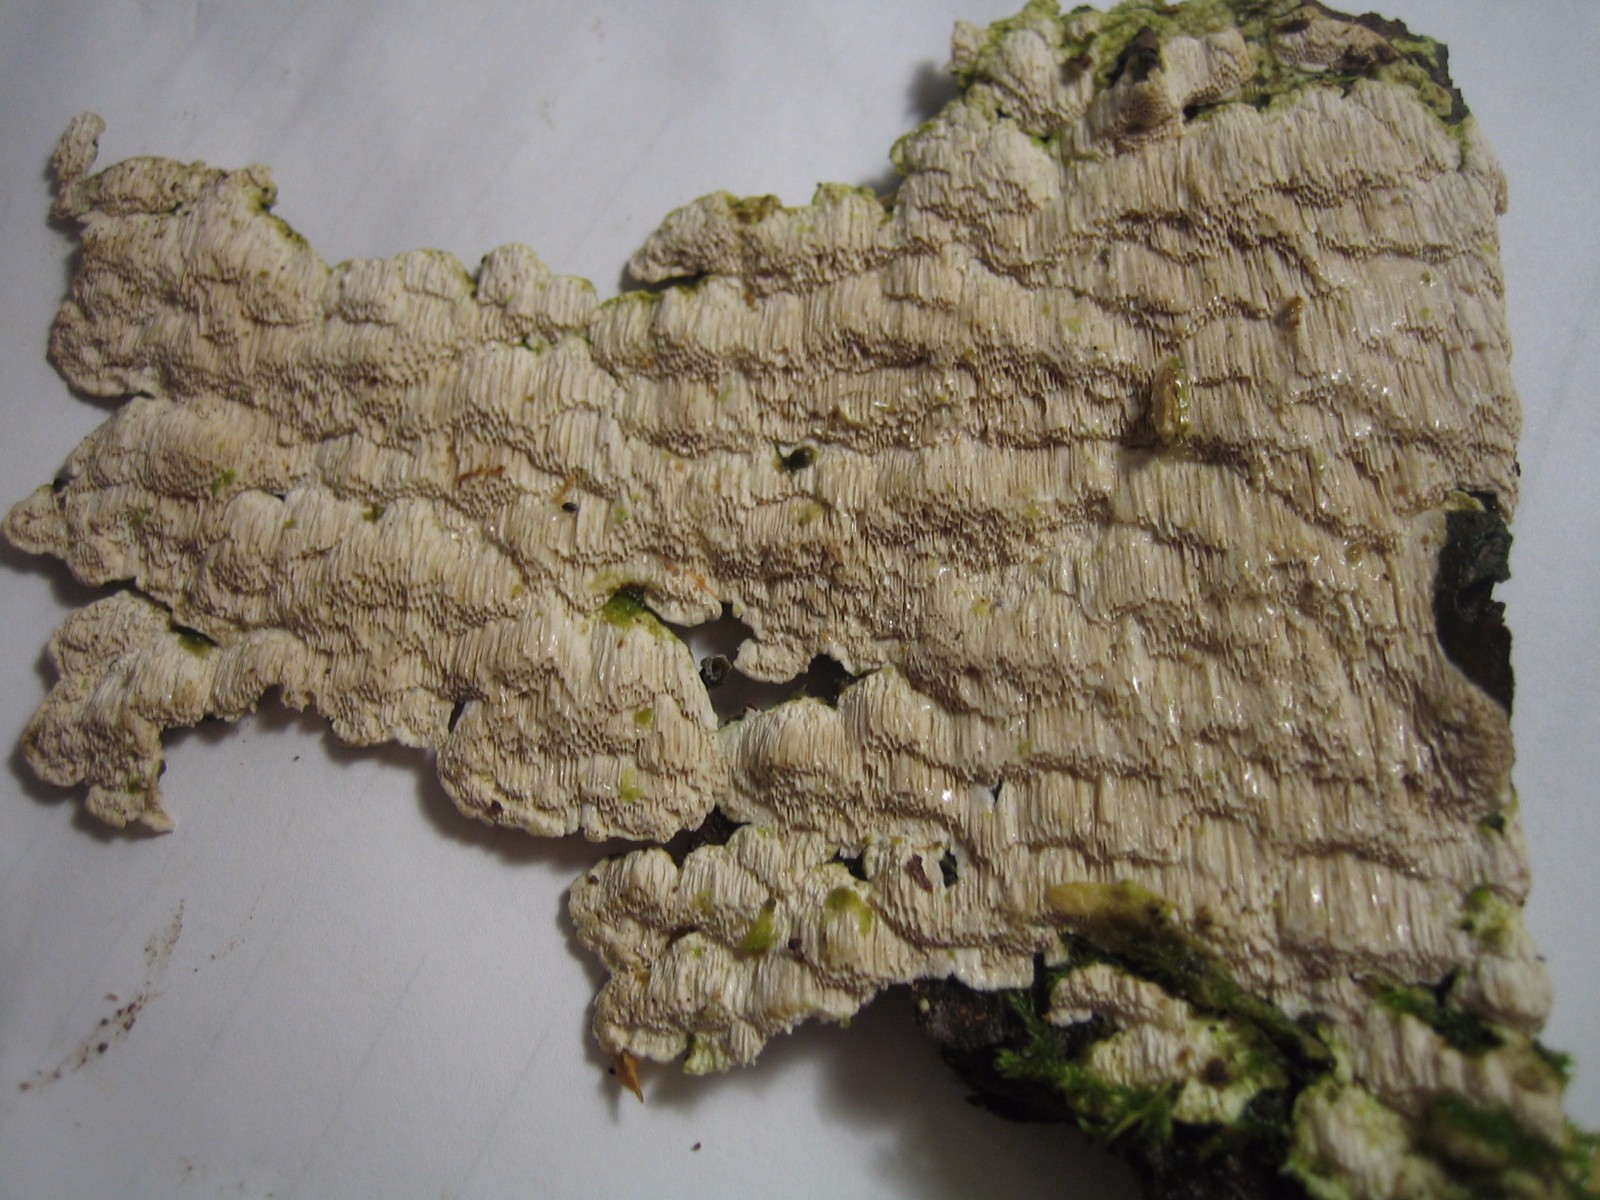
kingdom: Fungi
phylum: Basidiomycota
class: Agaricomycetes
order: Polyporales
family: Fomitopsidaceae
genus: Neoantrodia
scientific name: Neoantrodia serialis
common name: række-sejporesvamp
